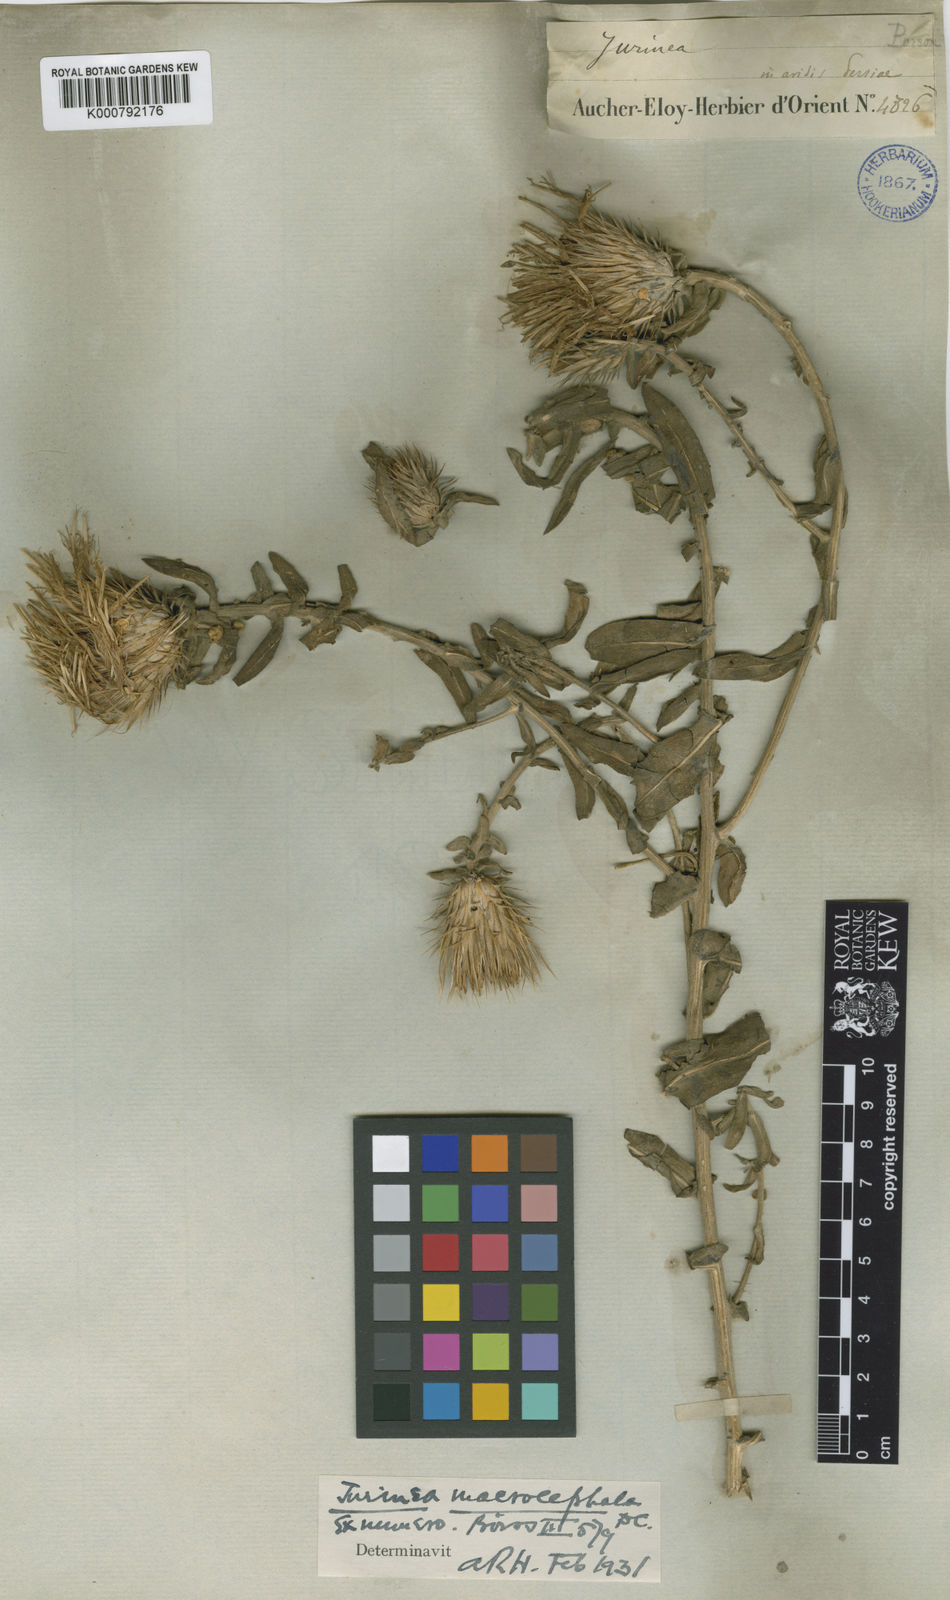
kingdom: Plantae
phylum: Tracheophyta
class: Magnoliopsida
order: Asterales
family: Asteraceae
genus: Jurinea
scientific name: Jurinea macrocephala
